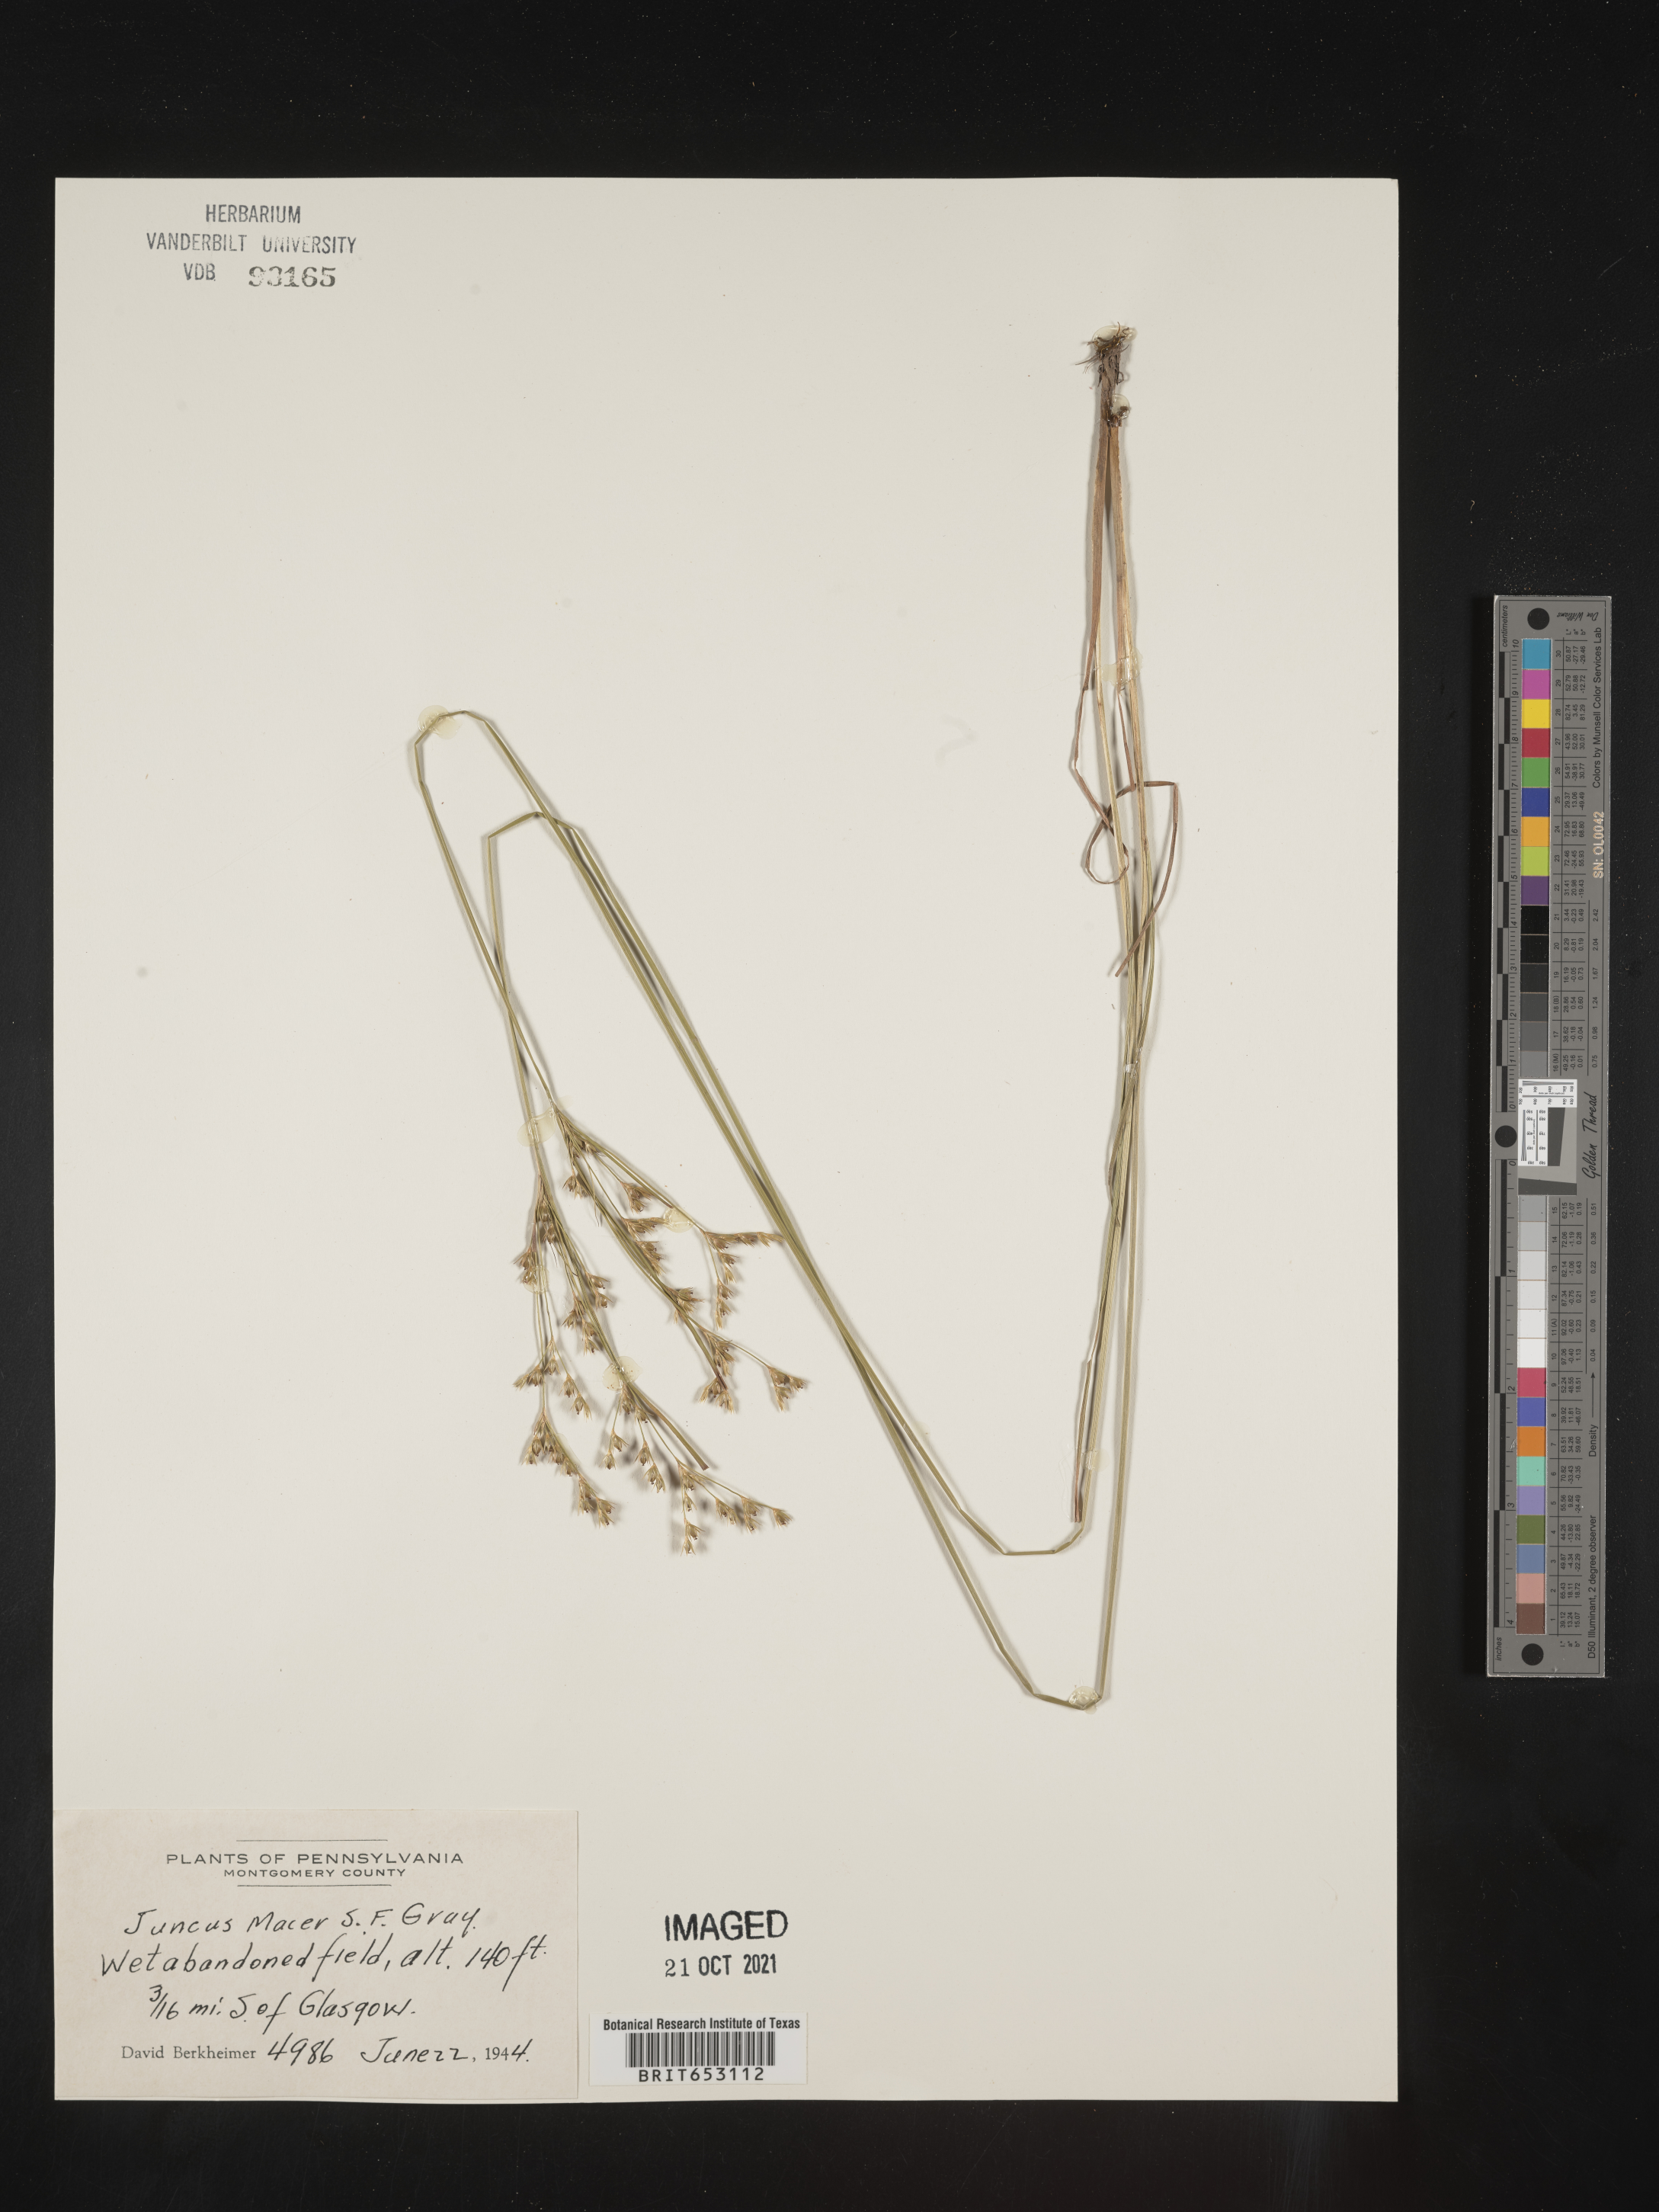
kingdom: Plantae
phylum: Tracheophyta
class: Liliopsida
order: Poales
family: Juncaceae
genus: Juncus
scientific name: Juncus tenuis
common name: Slender rush
